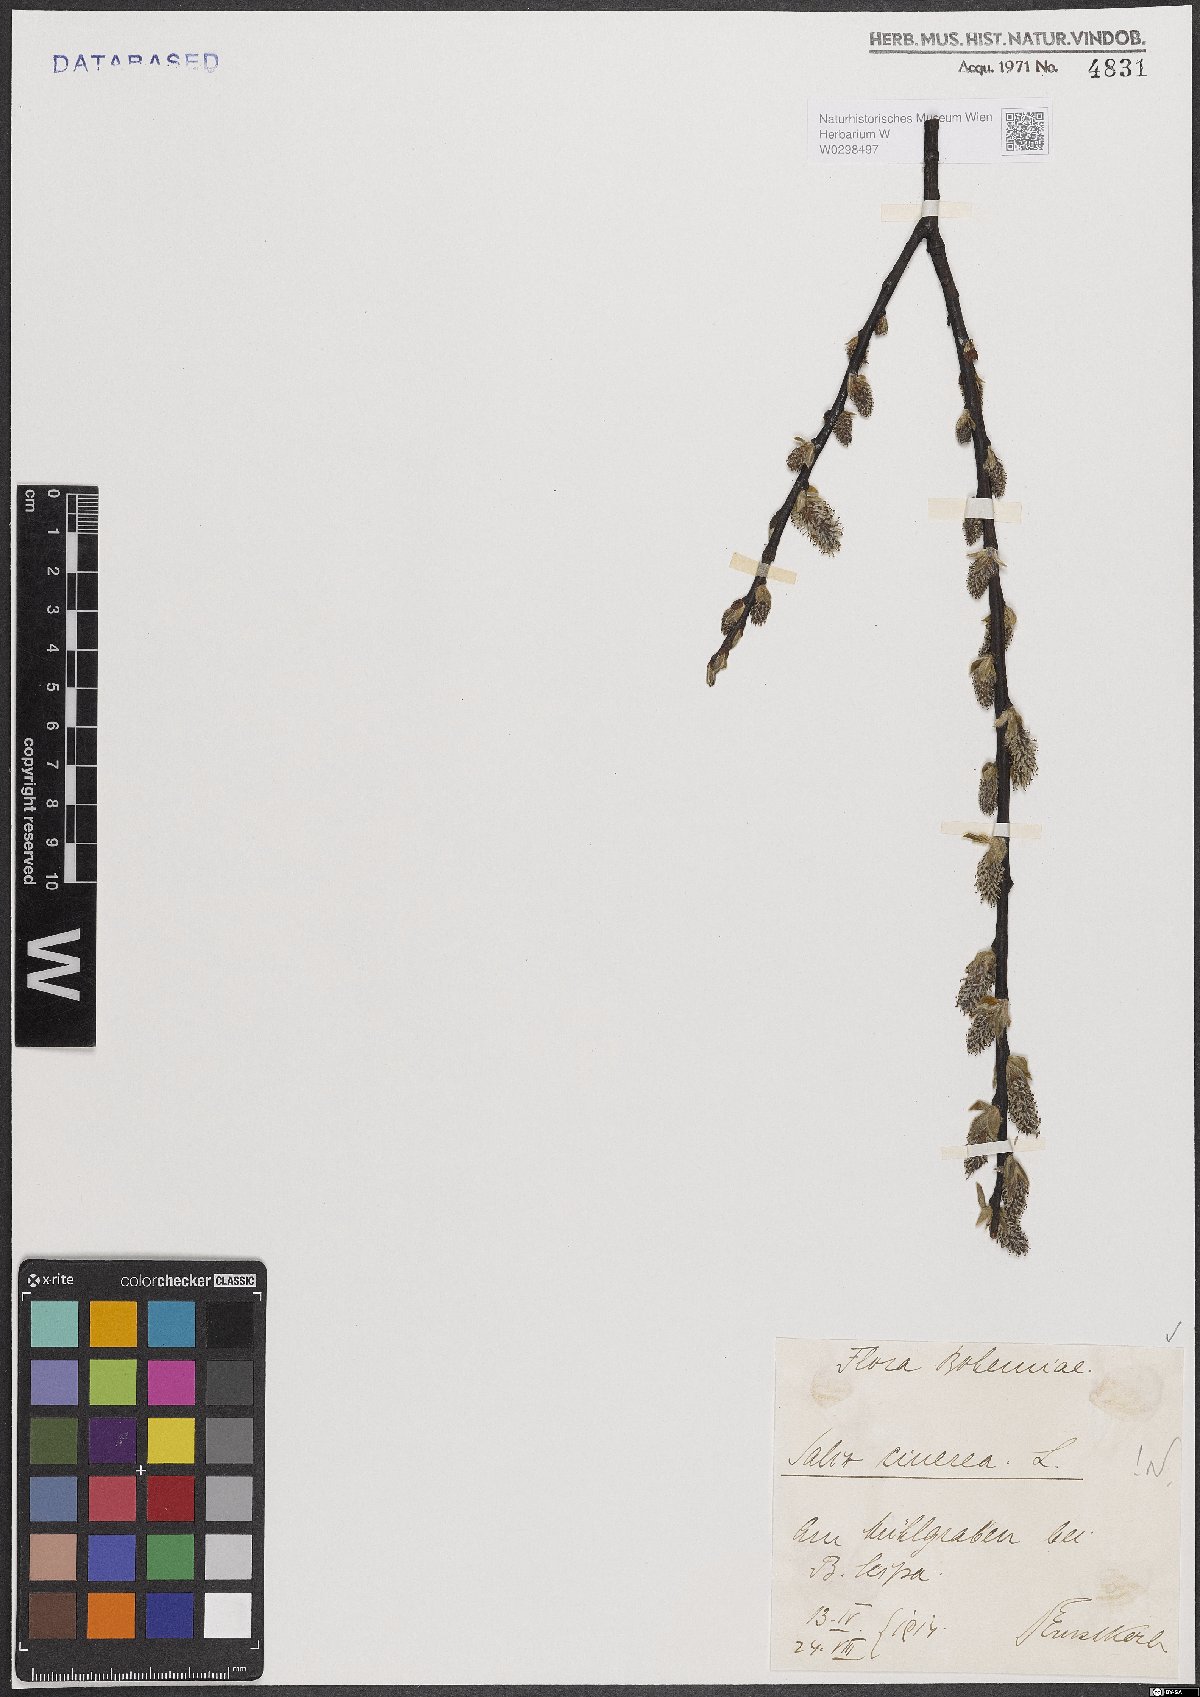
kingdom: Plantae
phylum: Tracheophyta
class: Magnoliopsida
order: Malpighiales
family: Salicaceae
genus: Salix
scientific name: Salix cinerea
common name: Common sallow
